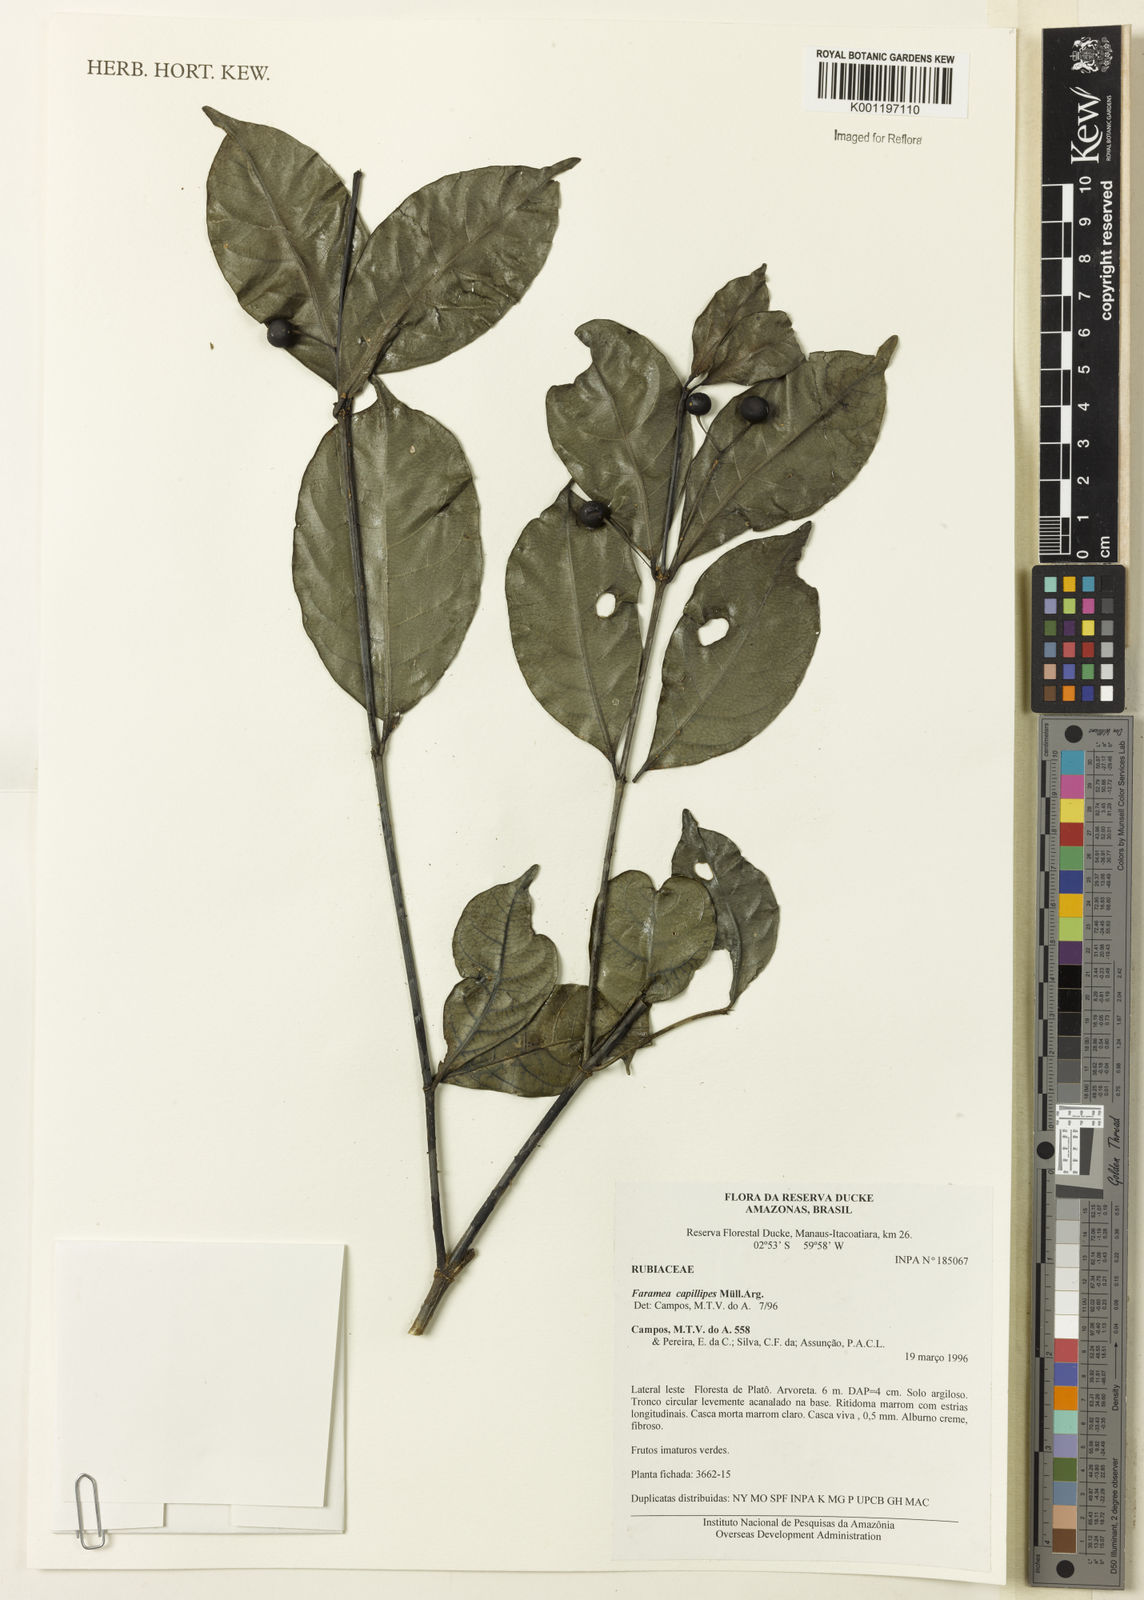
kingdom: Plantae
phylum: Tracheophyta
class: Magnoliopsida
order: Gentianales
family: Rubiaceae
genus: Faramea
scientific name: Faramea
